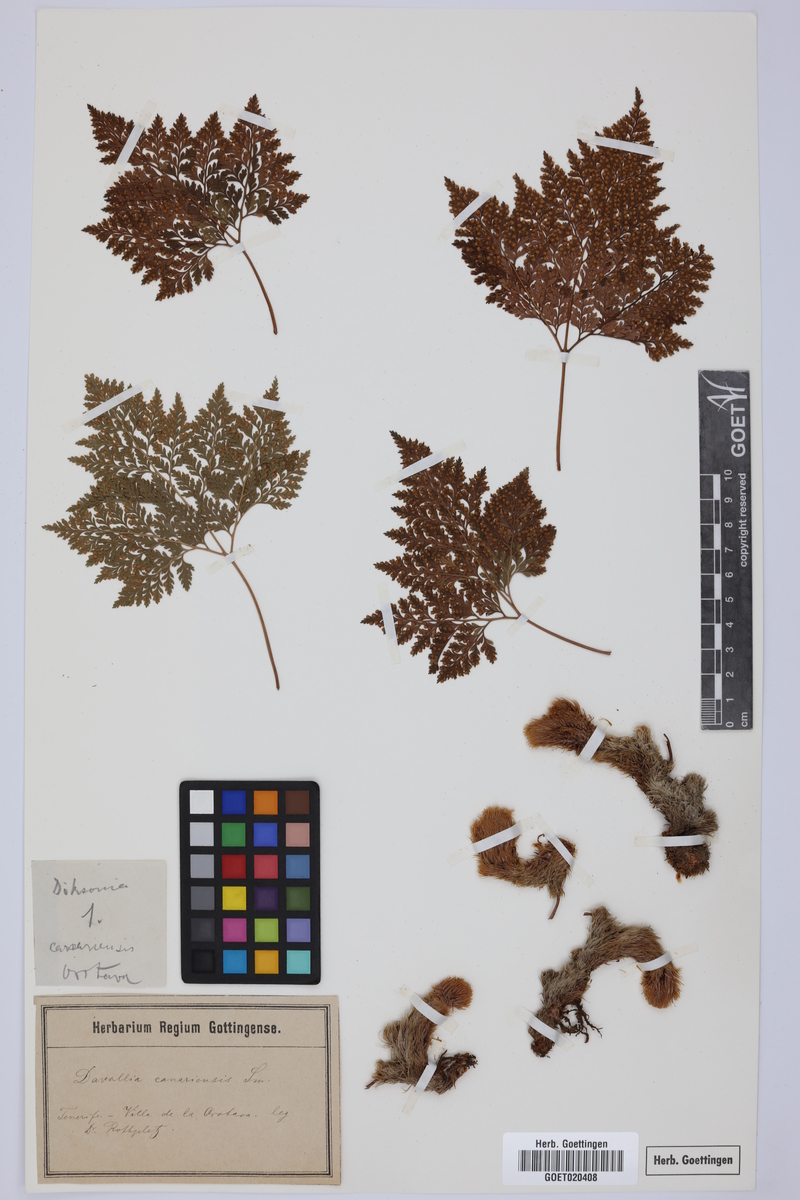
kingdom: Plantae
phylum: Tracheophyta
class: Polypodiopsida
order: Polypodiales
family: Davalliaceae
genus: Davallia
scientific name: Davallia canariensis
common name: Hare's-foot fern
